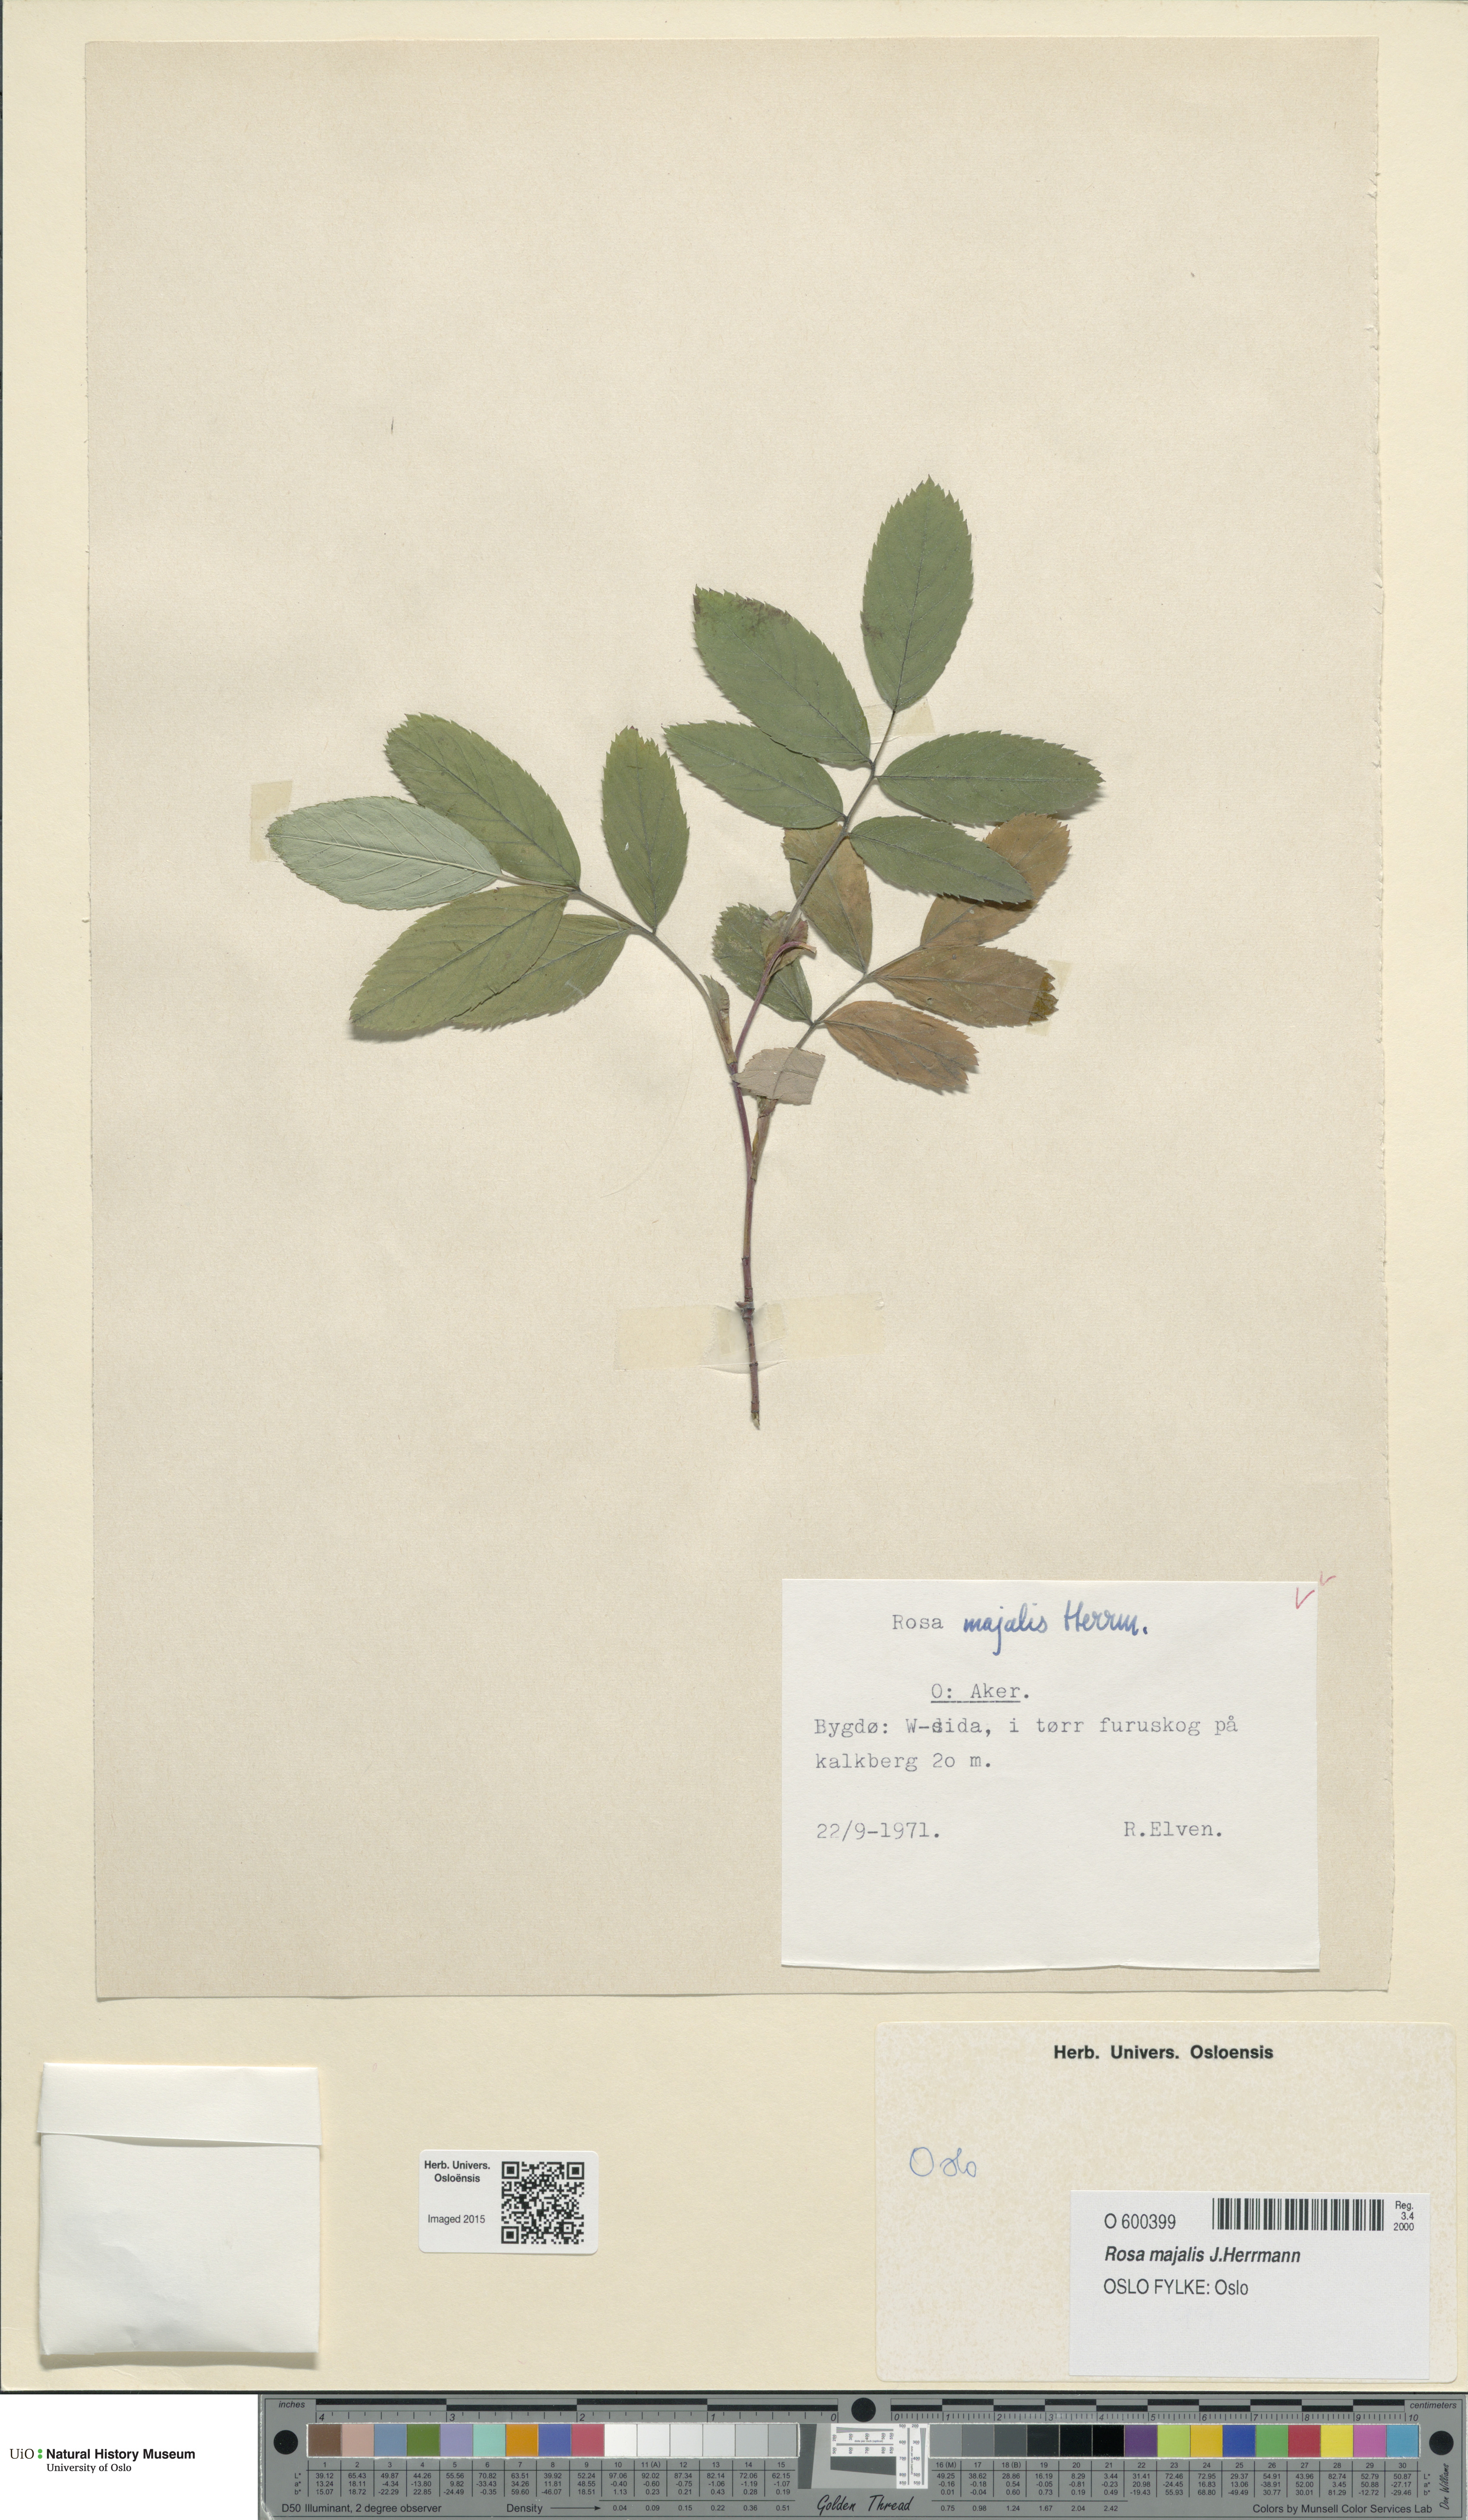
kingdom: Plantae
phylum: Tracheophyta
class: Magnoliopsida
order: Rosales
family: Rosaceae
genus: Rosa
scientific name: Rosa majalis
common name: Cinnamon rose
